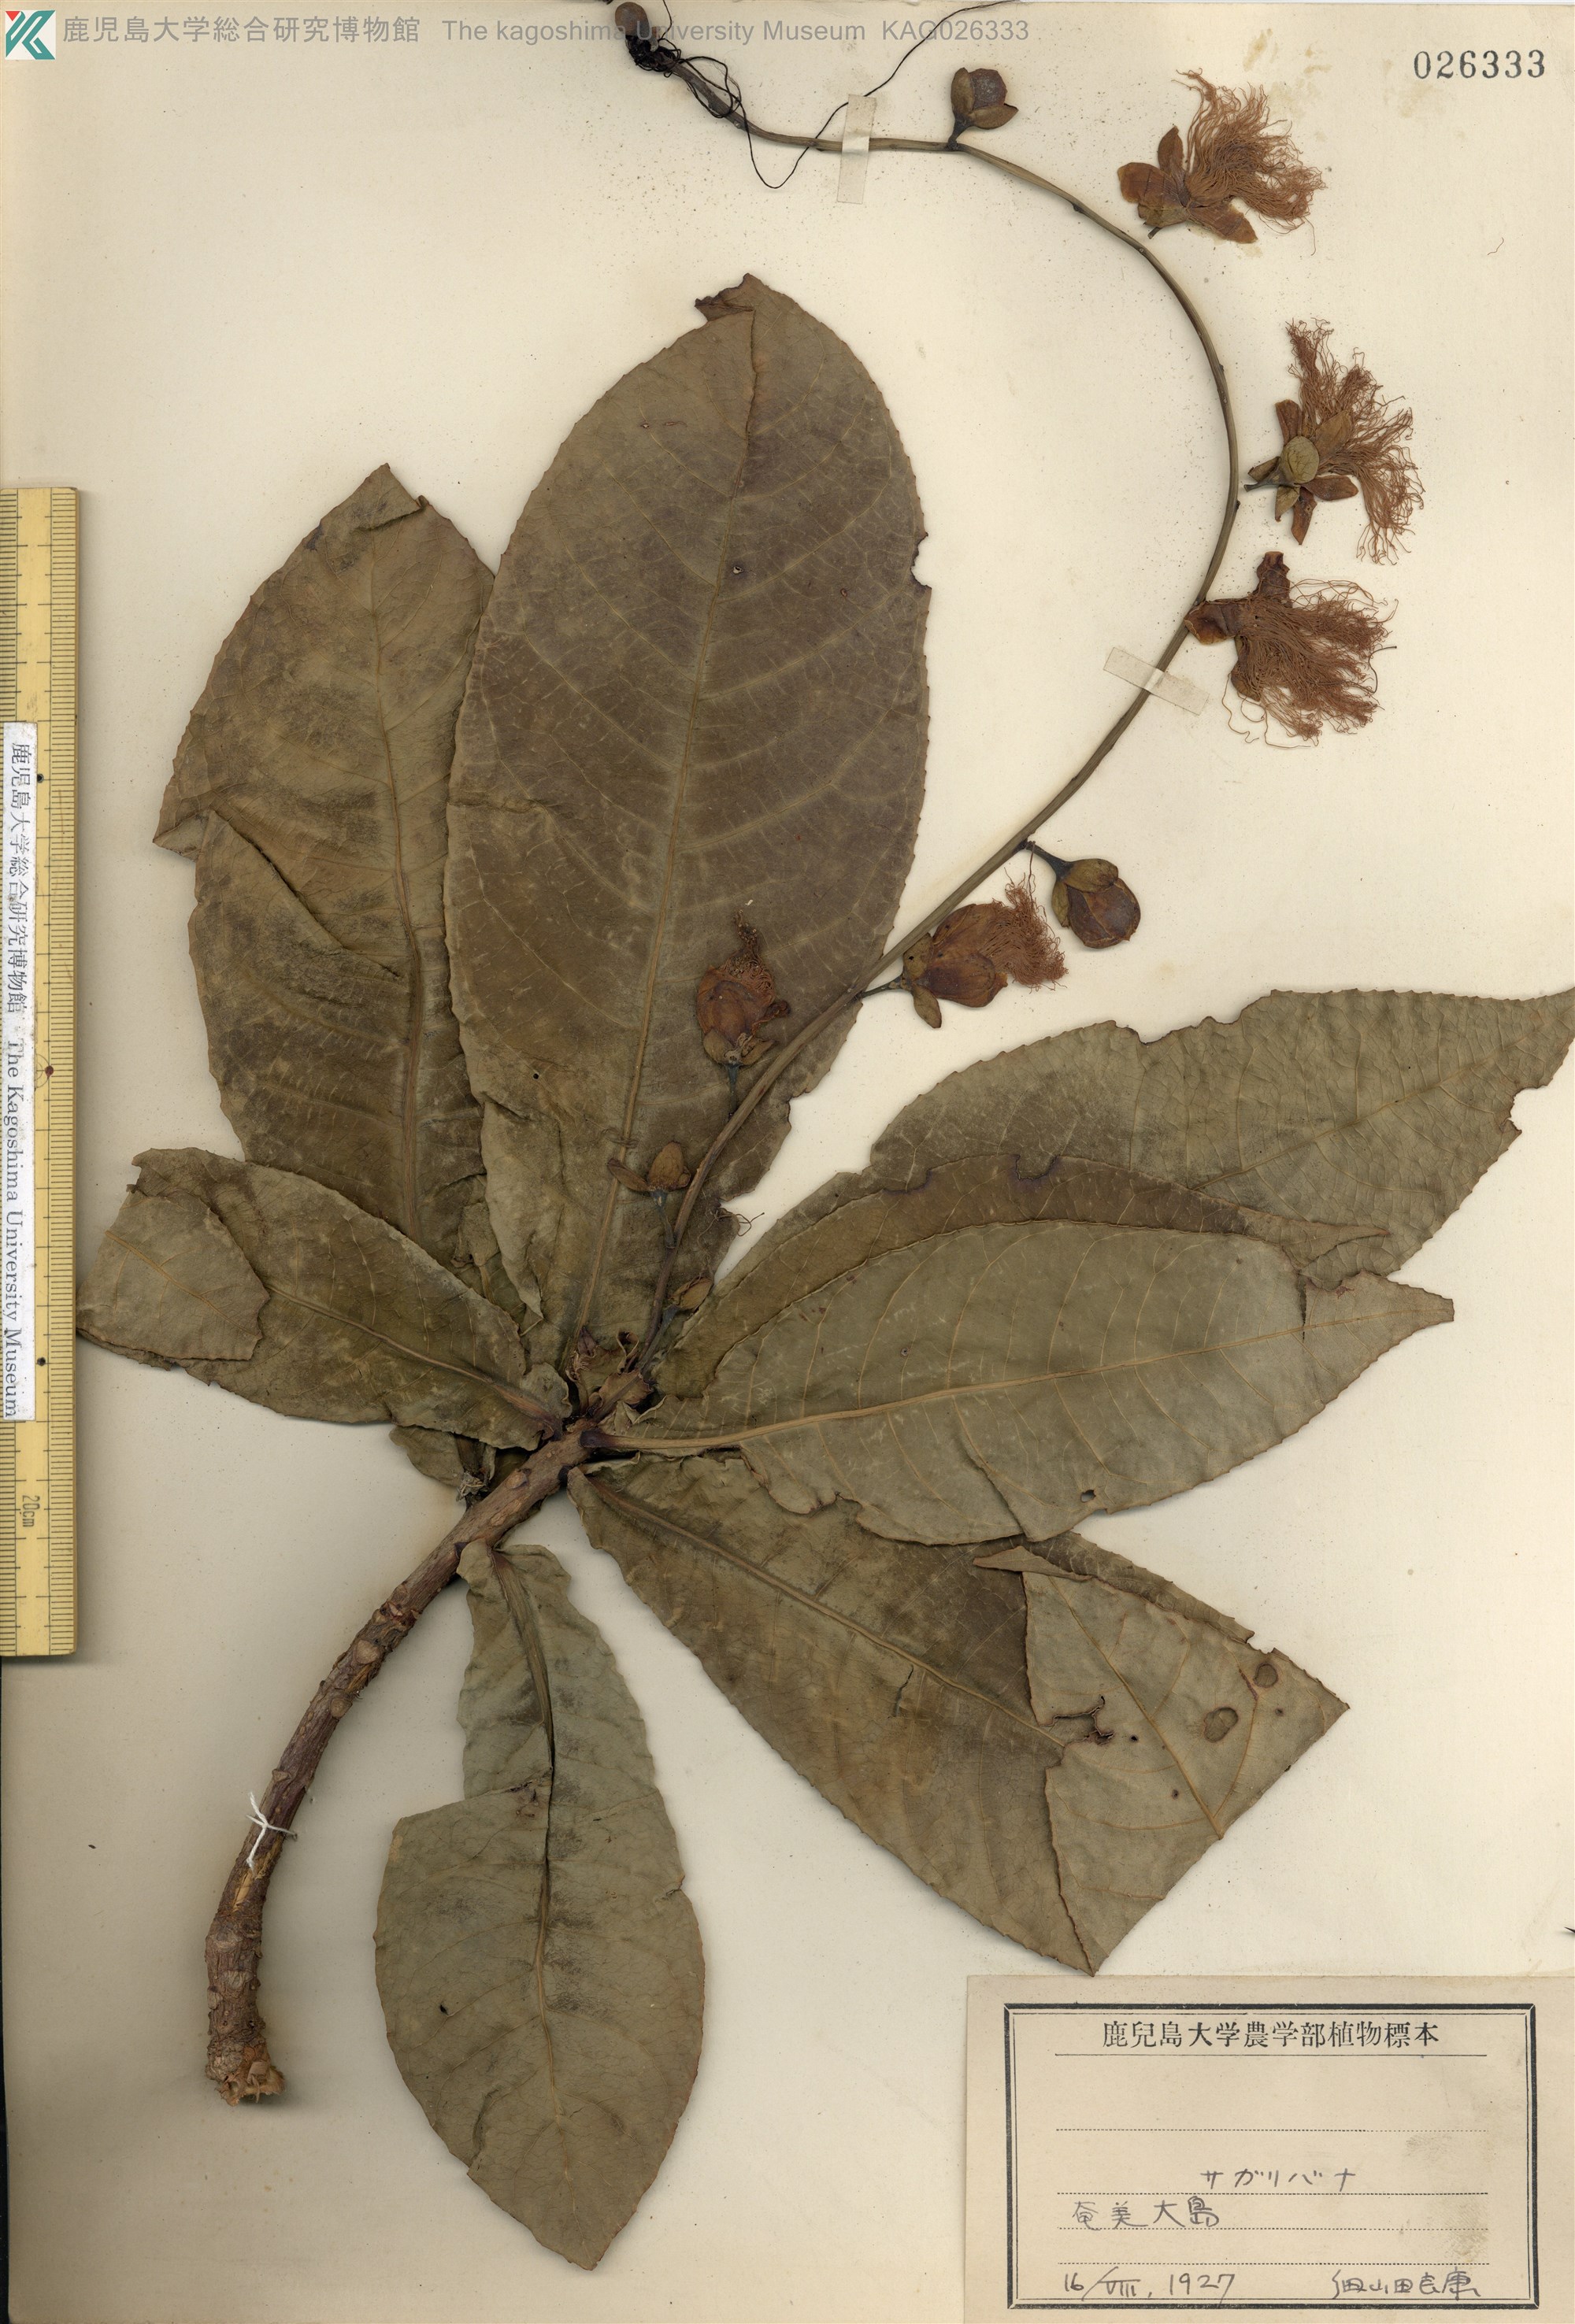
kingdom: Plantae
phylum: Tracheophyta
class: Magnoliopsida
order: Ericales
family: Lecythidaceae
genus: Barringtonia
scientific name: Barringtonia racemosa
